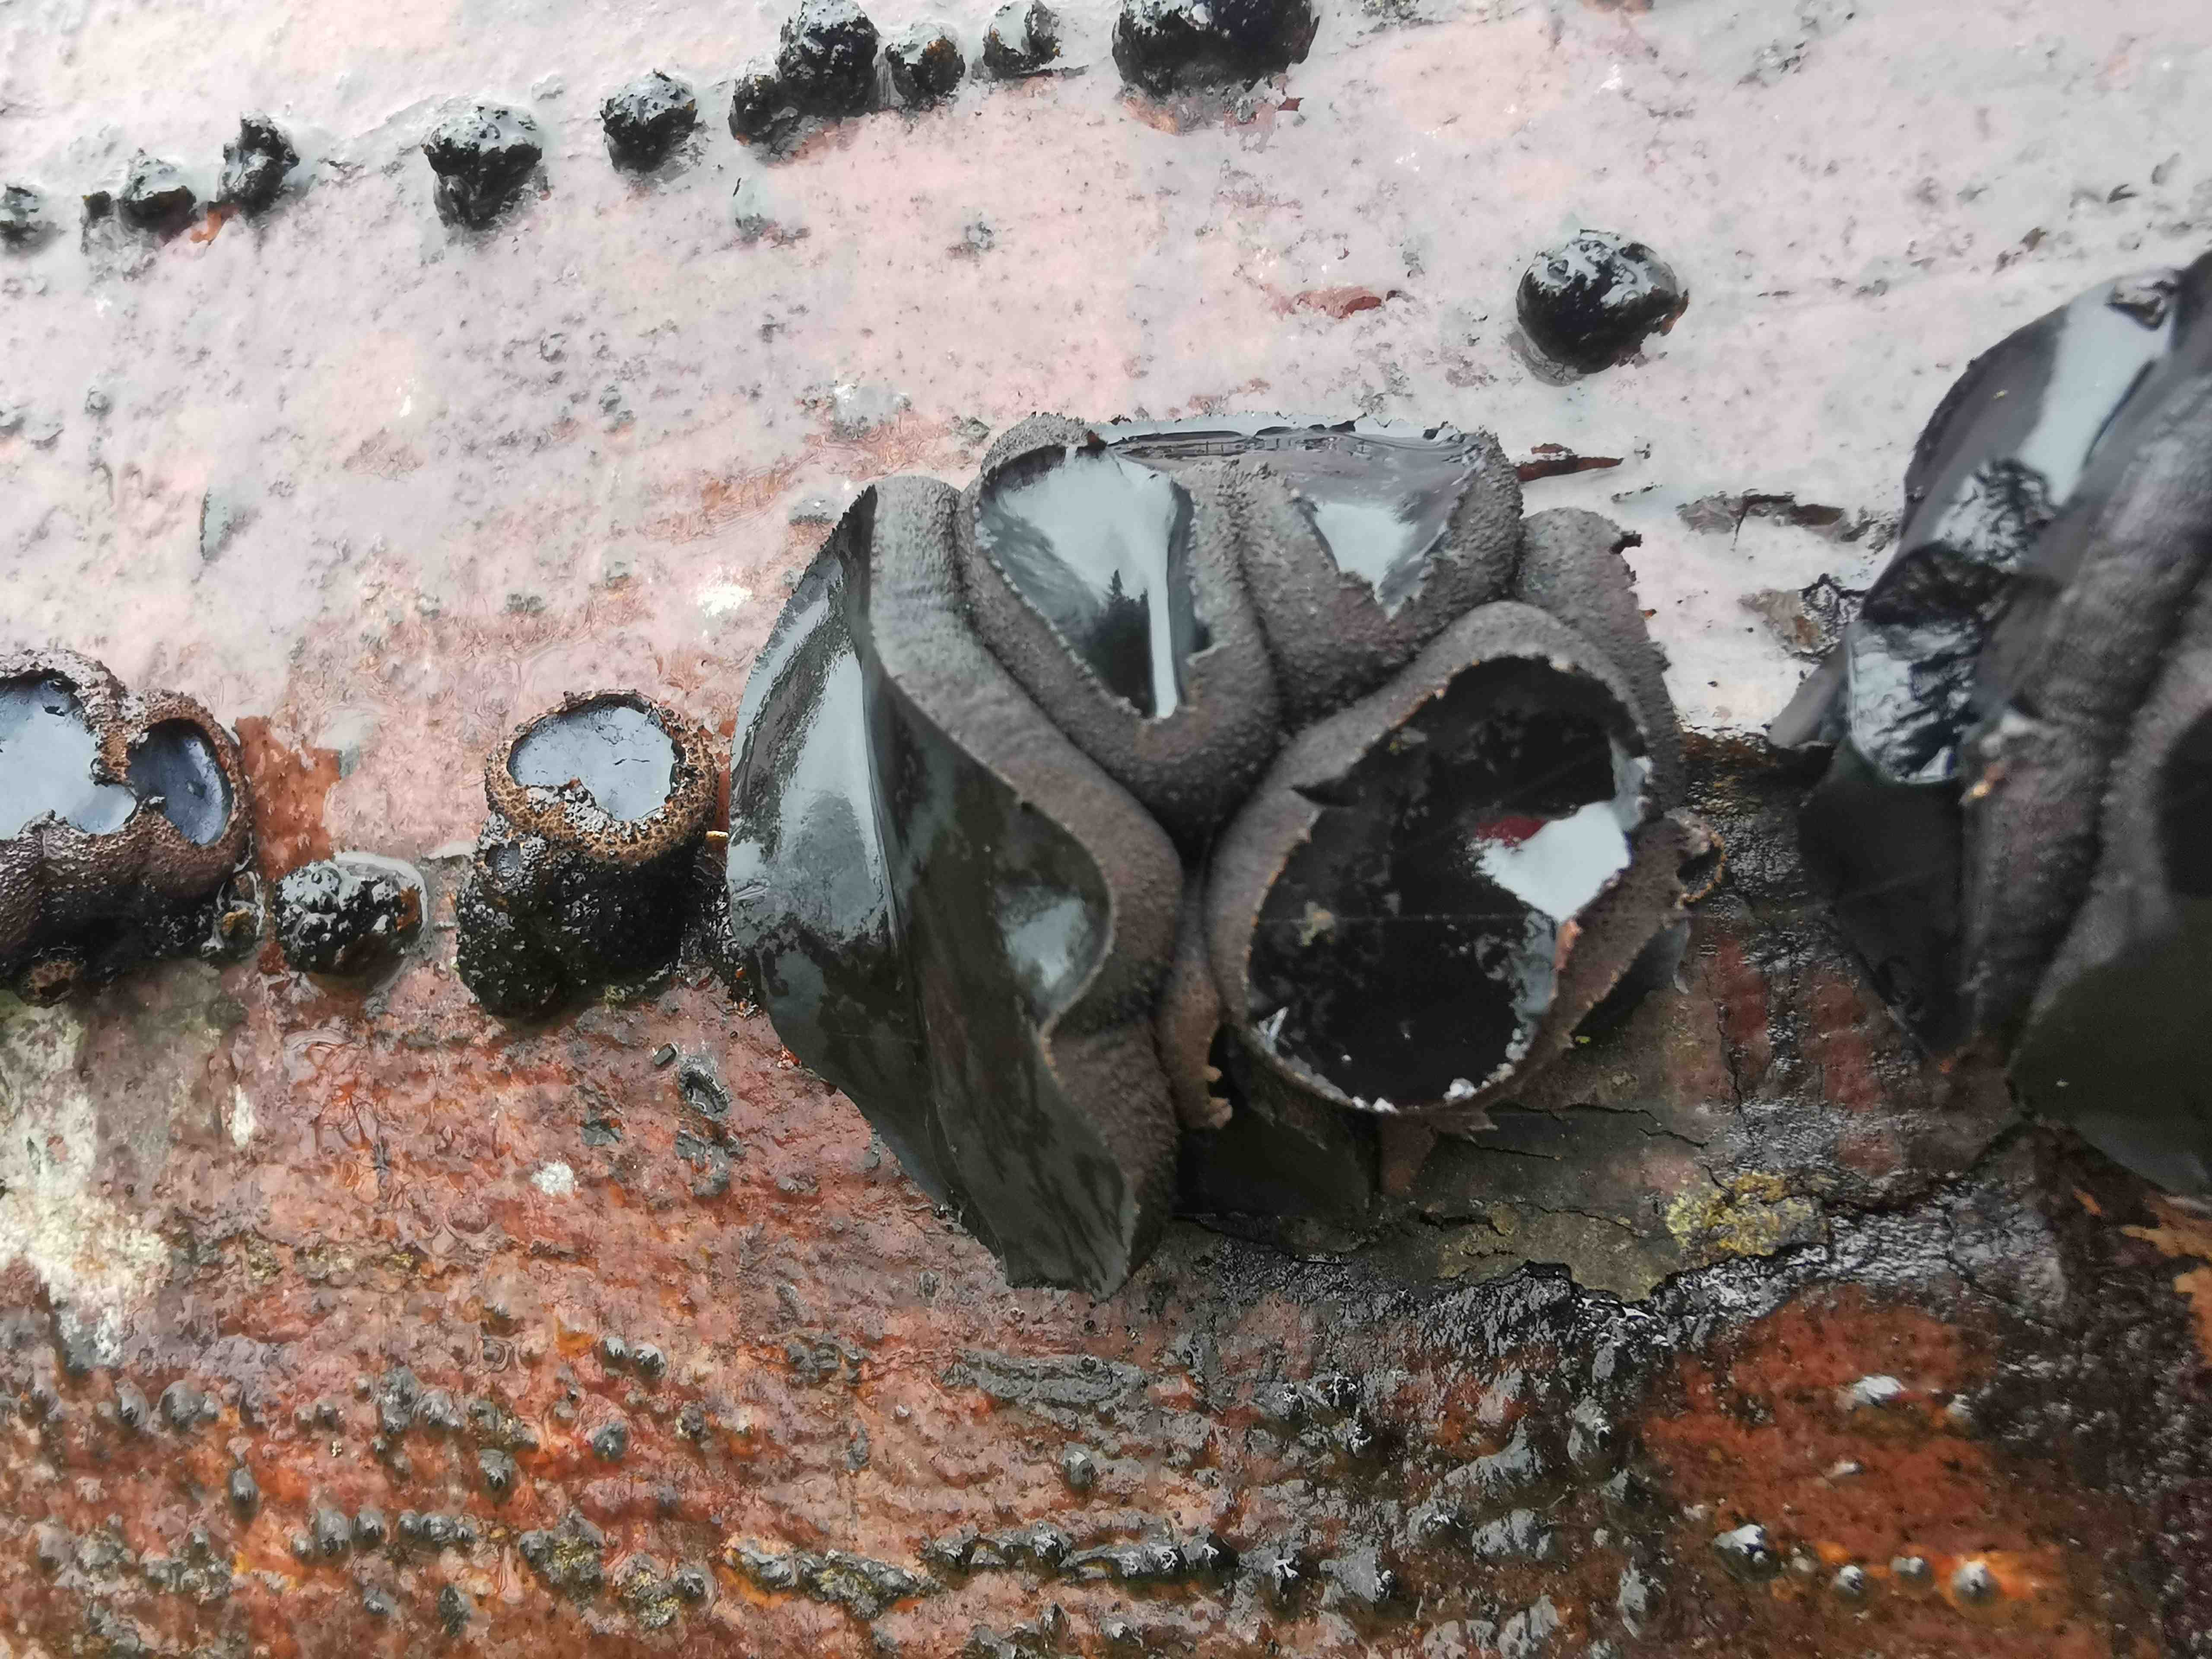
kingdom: Fungi
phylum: Ascomycota
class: Leotiomycetes
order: Phacidiales
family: Phacidiaceae
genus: Bulgaria
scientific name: Bulgaria inquinans
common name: afsmittende topsvamp
